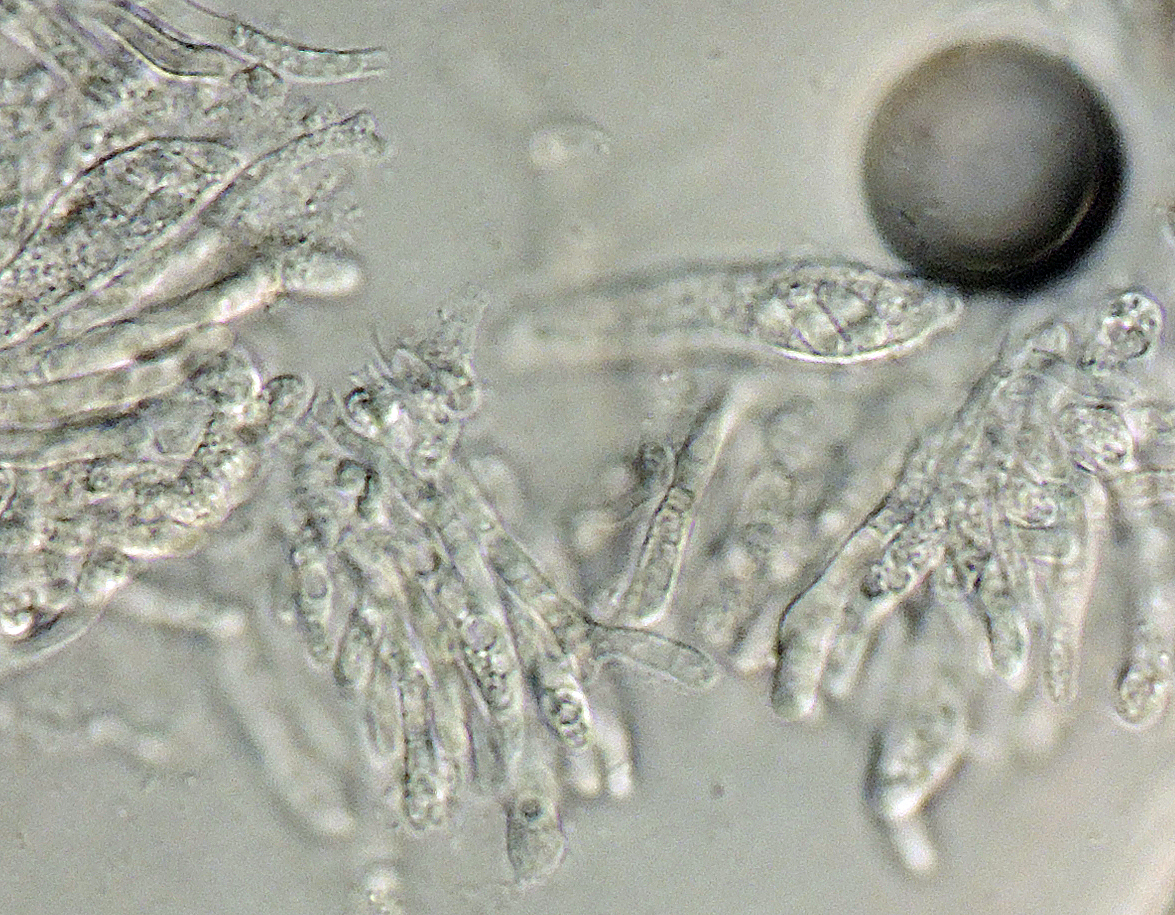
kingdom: Fungi
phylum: Ascomycota
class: Leotiomycetes
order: Helotiales
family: Hyphodiscaceae
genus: Hyphodiscus
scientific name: Hyphodiscus hymeniophilus
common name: snyltende sirskive
